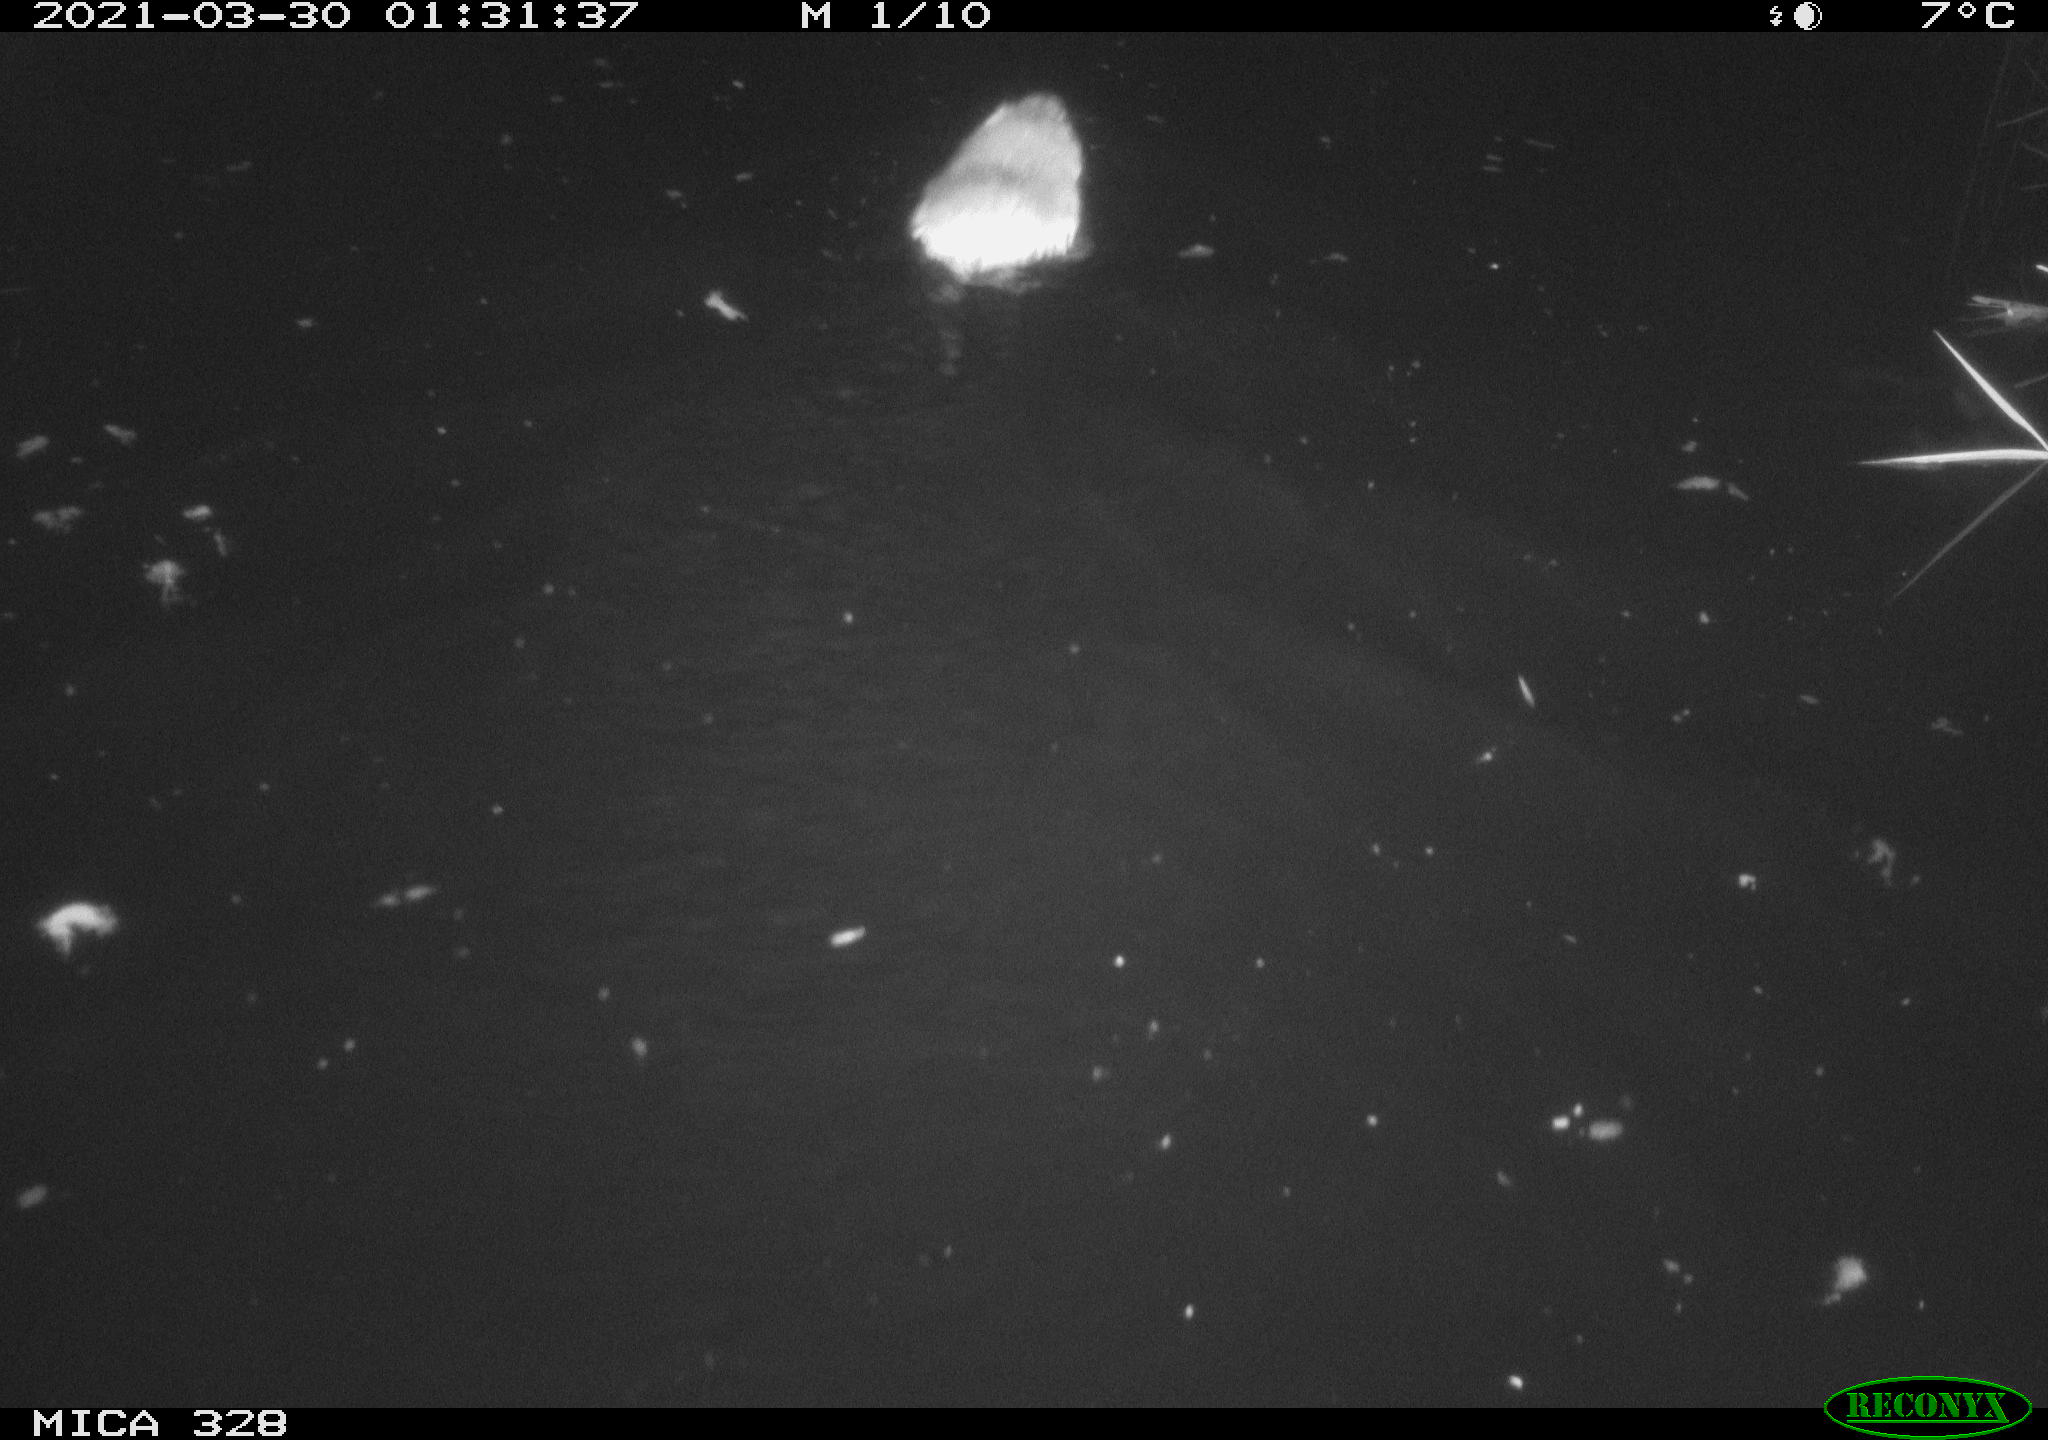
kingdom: Animalia
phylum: Chordata
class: Mammalia
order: Rodentia
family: Cricetidae
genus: Ondatra
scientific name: Ondatra zibethicus
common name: Muskrat
